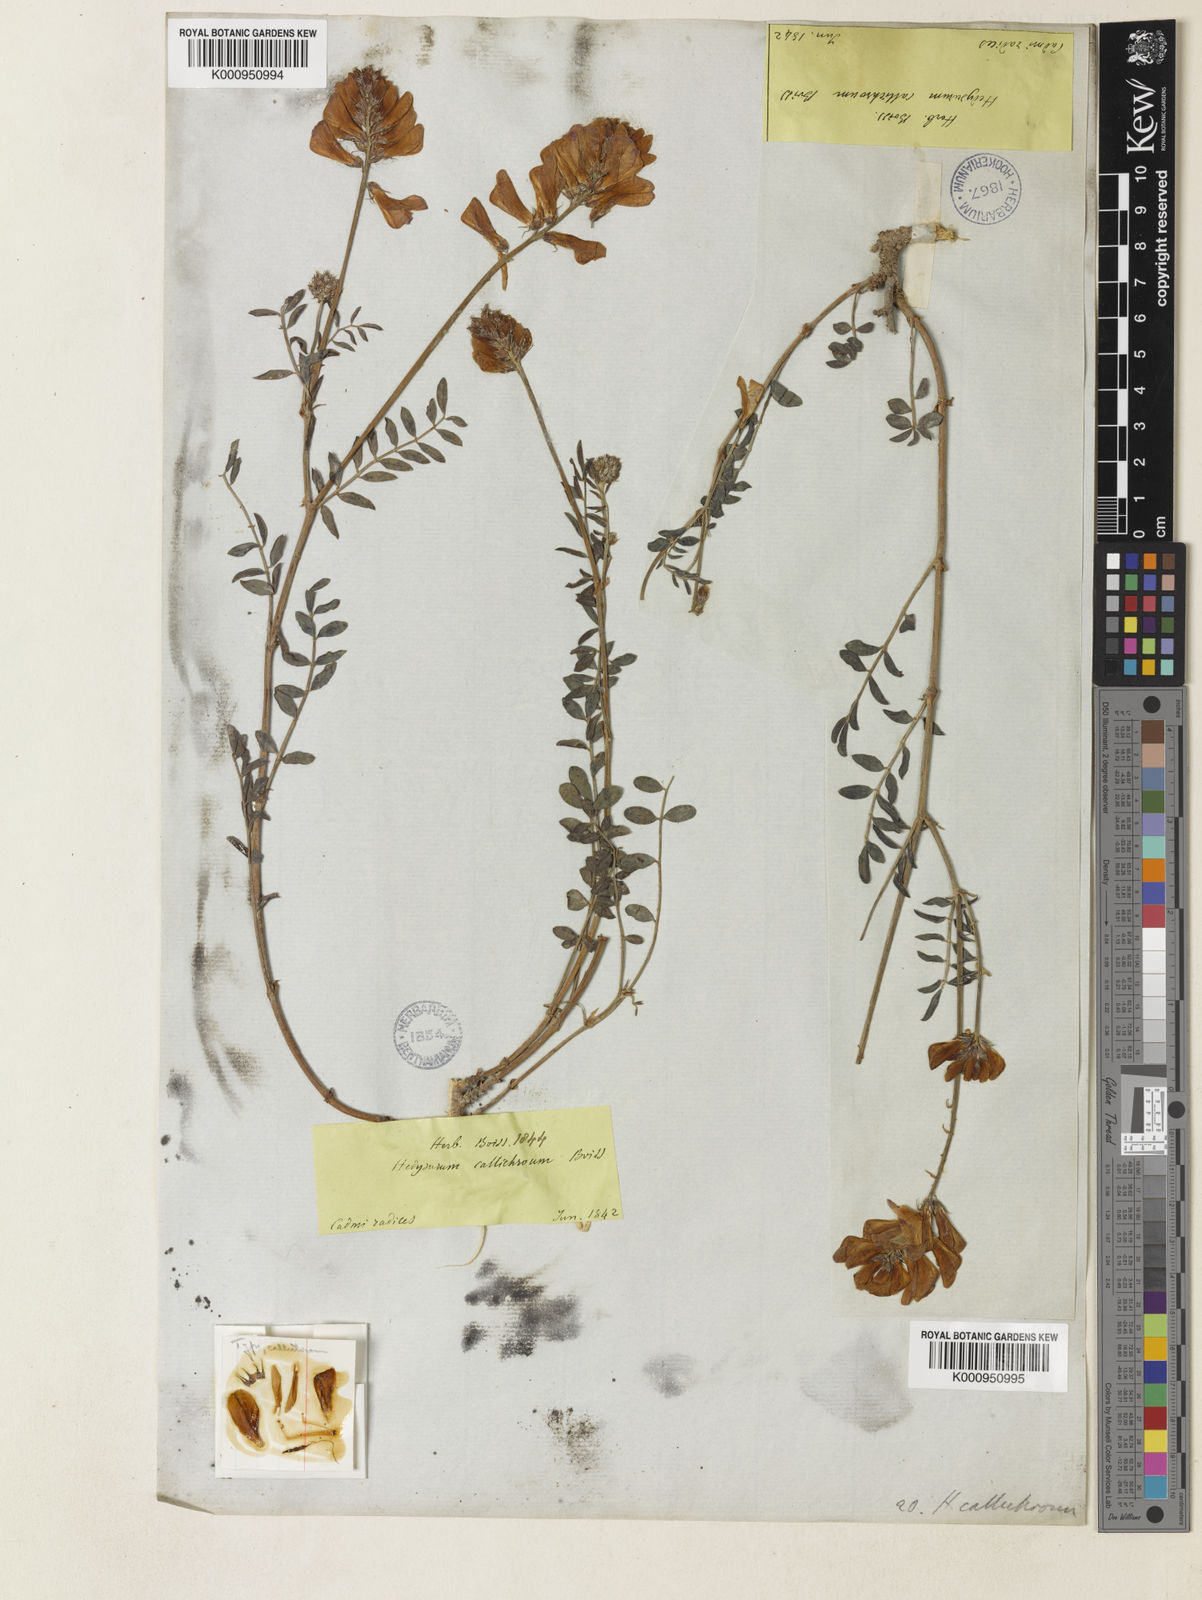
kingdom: Plantae
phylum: Tracheophyta
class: Magnoliopsida
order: Fabales
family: Fabaceae
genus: Hedysarum
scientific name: Hedysarum varium
